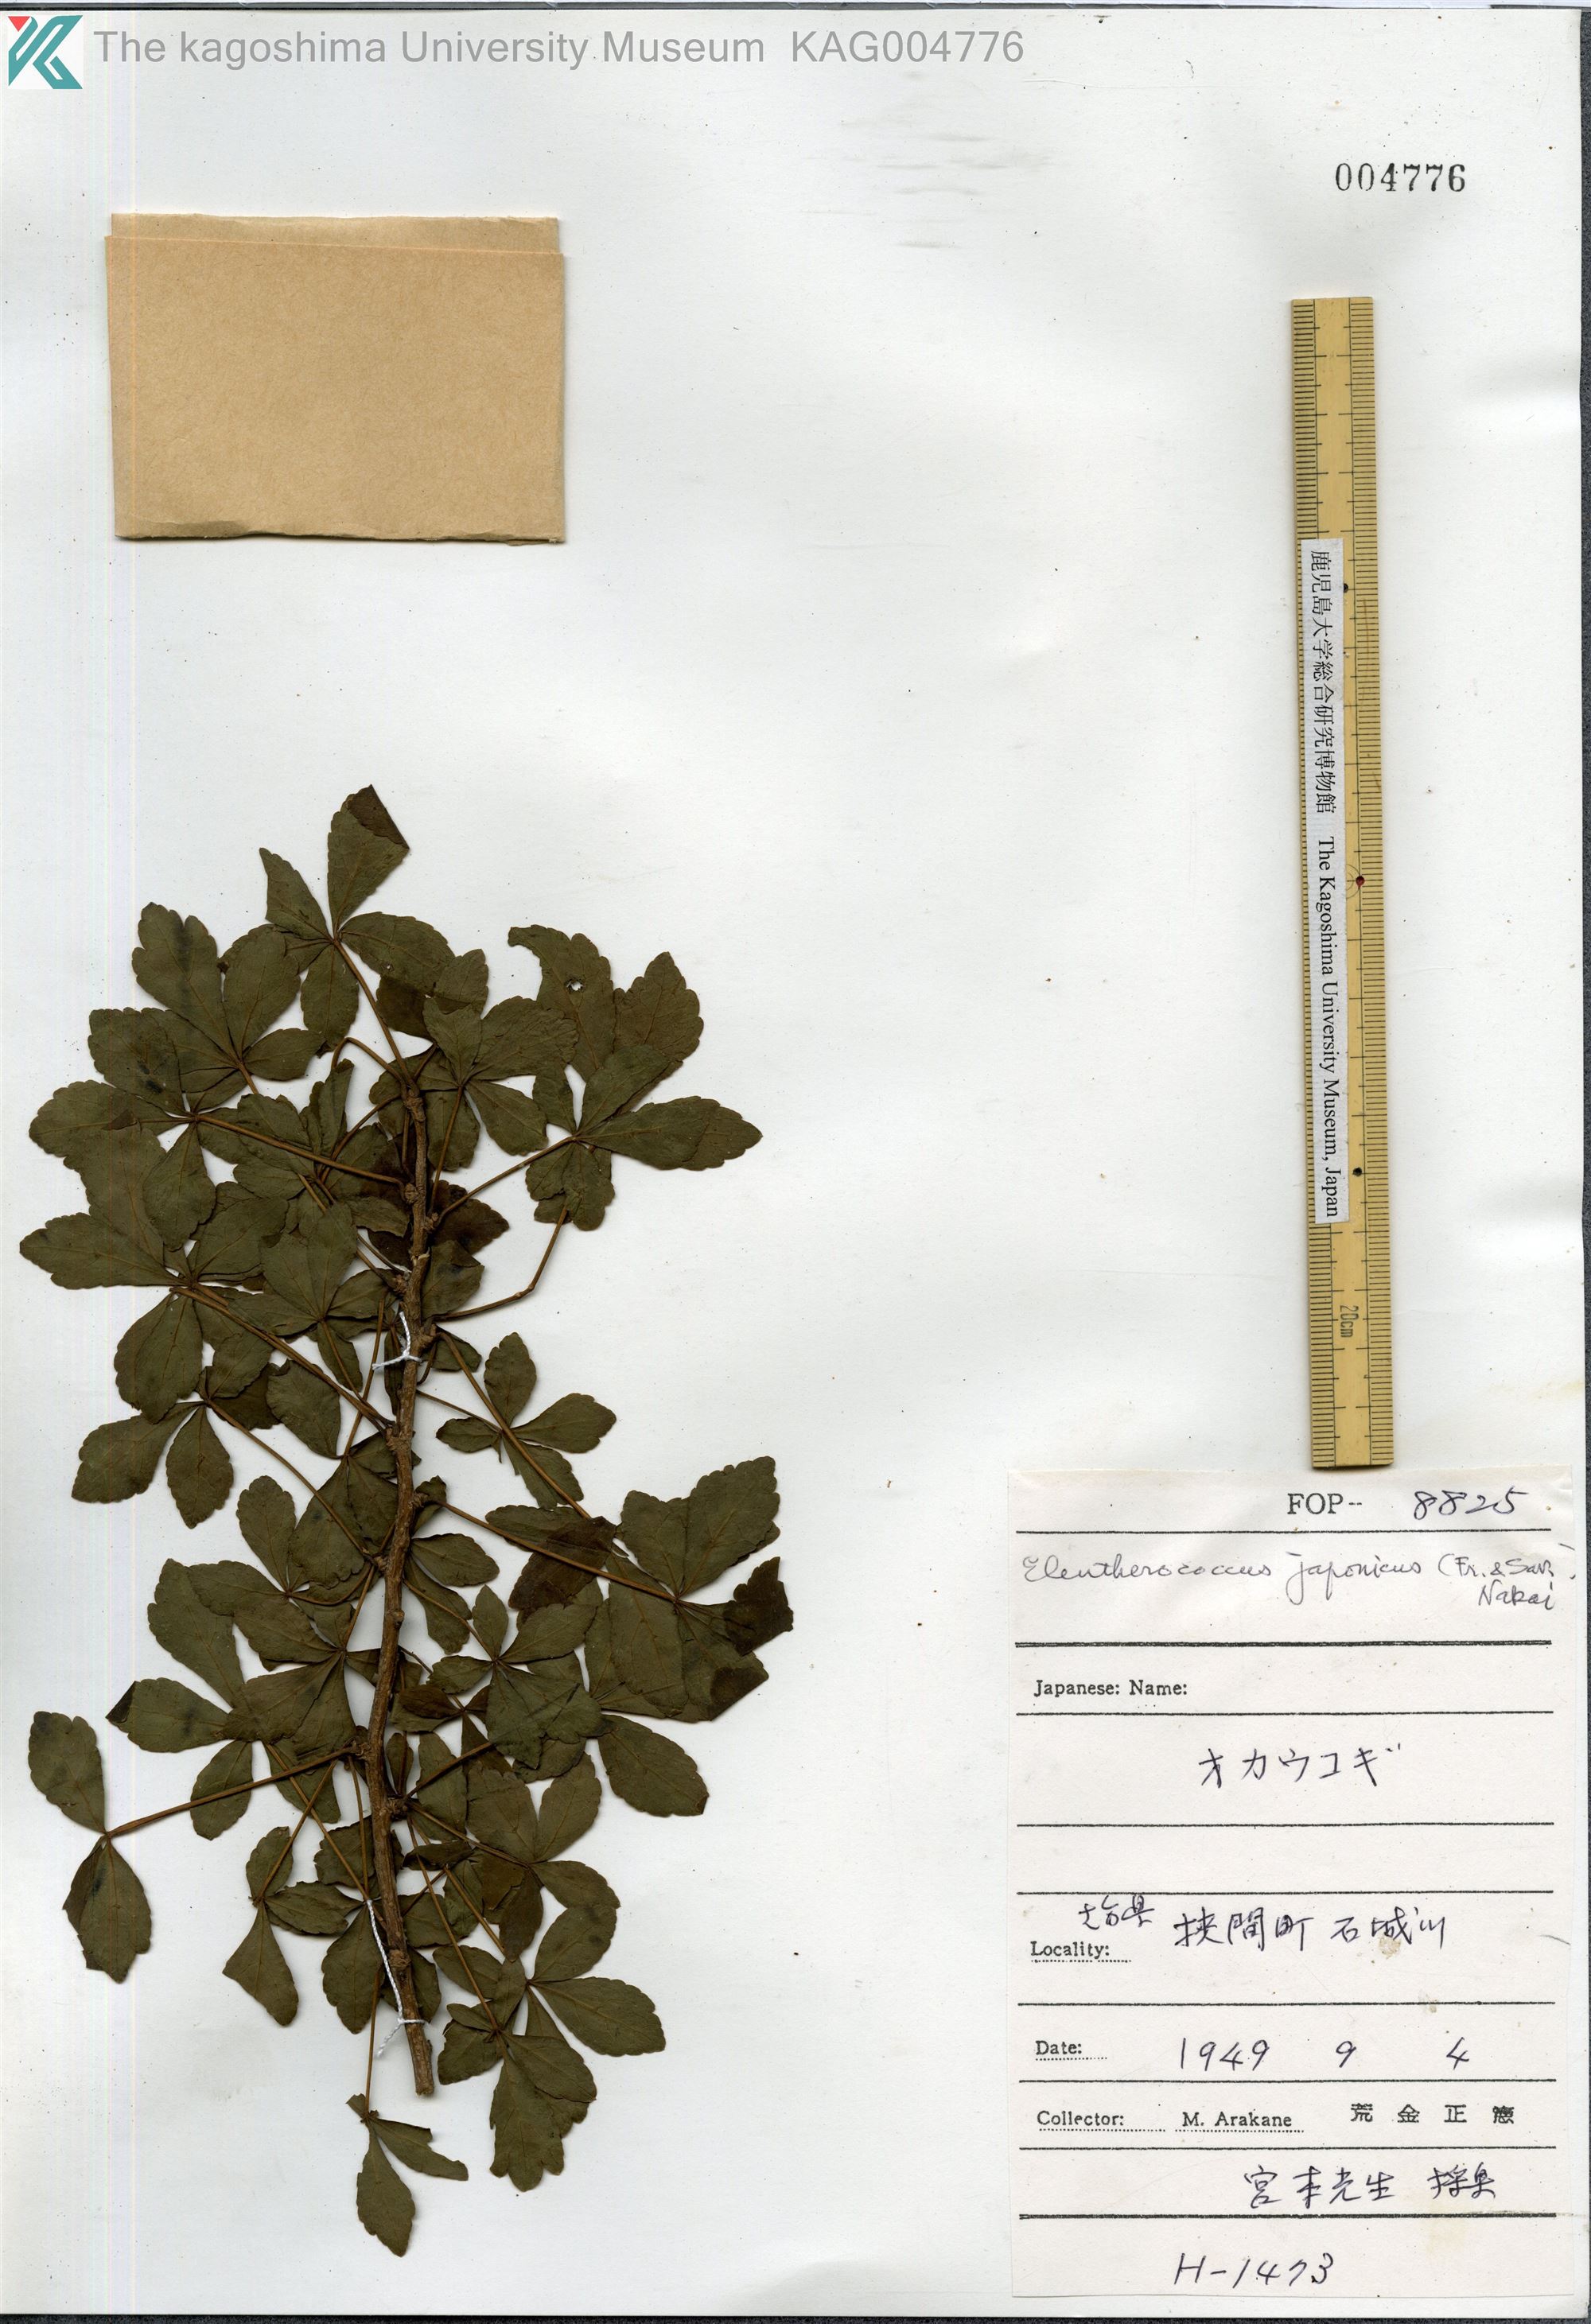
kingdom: Plantae
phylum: Tracheophyta
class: Magnoliopsida
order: Apiales
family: Araliaceae
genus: Eleutherococcus
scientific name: Eleutherococcus japonicus
